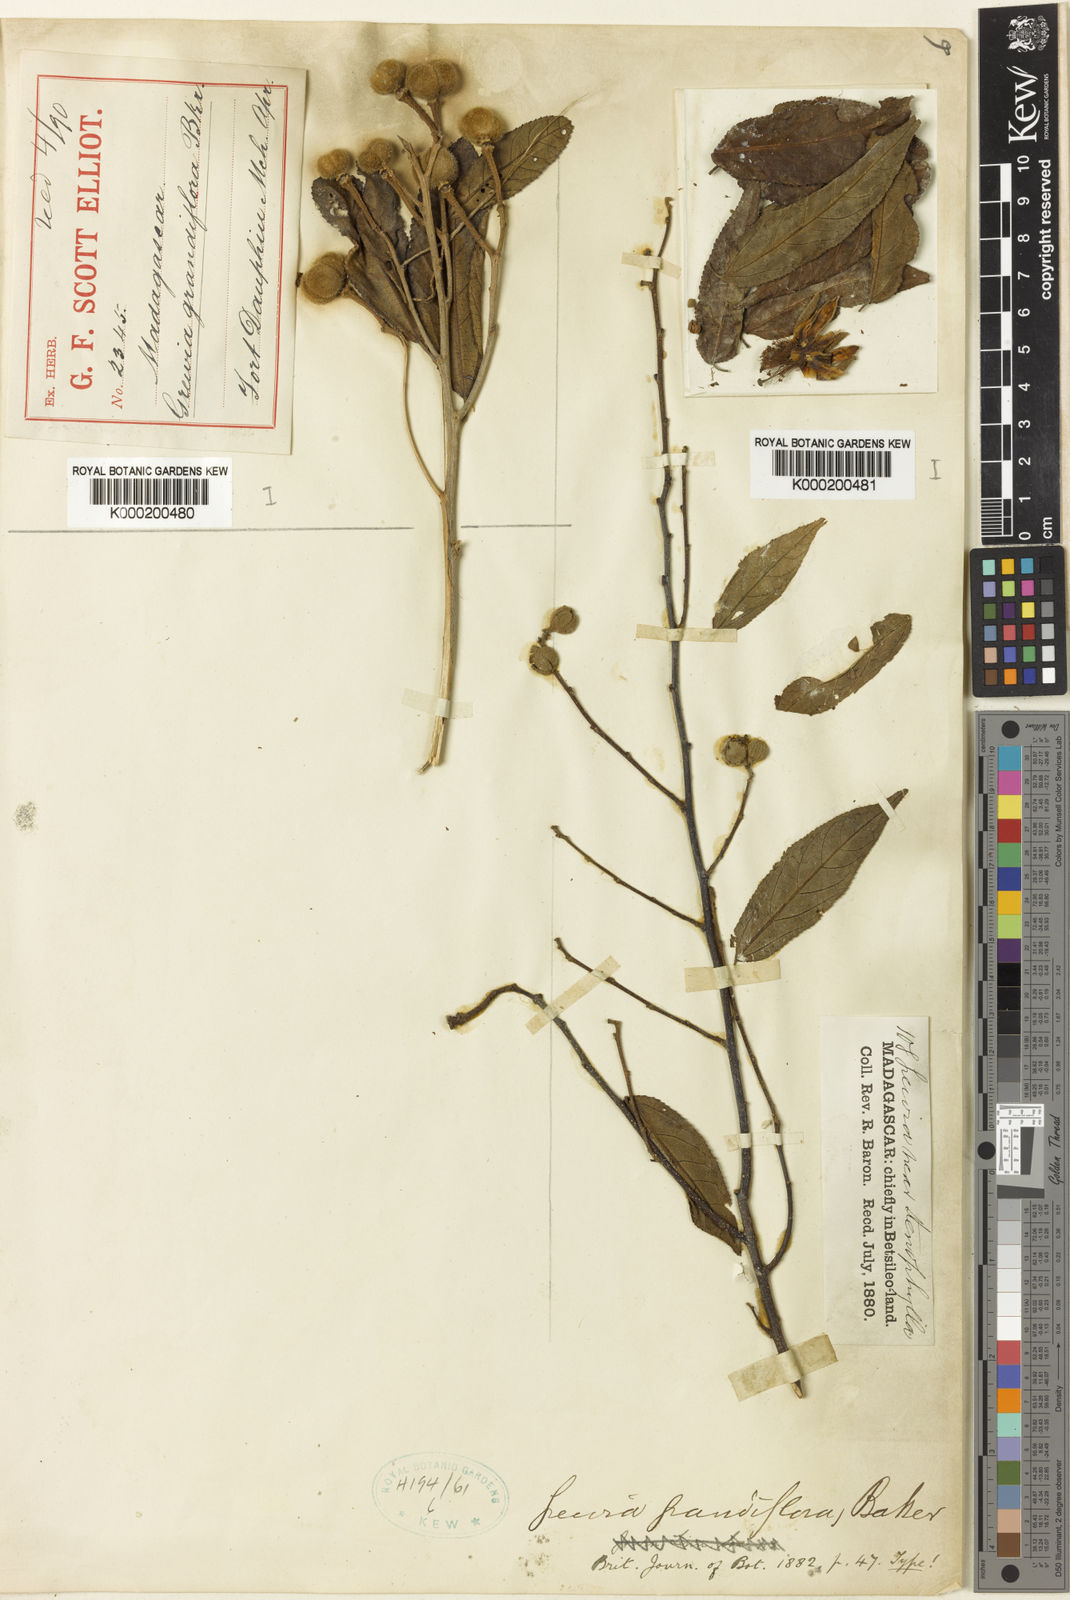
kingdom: Plantae
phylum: Tracheophyta
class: Magnoliopsida
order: Malvales
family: Malvaceae
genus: Grewia
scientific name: Grewia grandiflora
